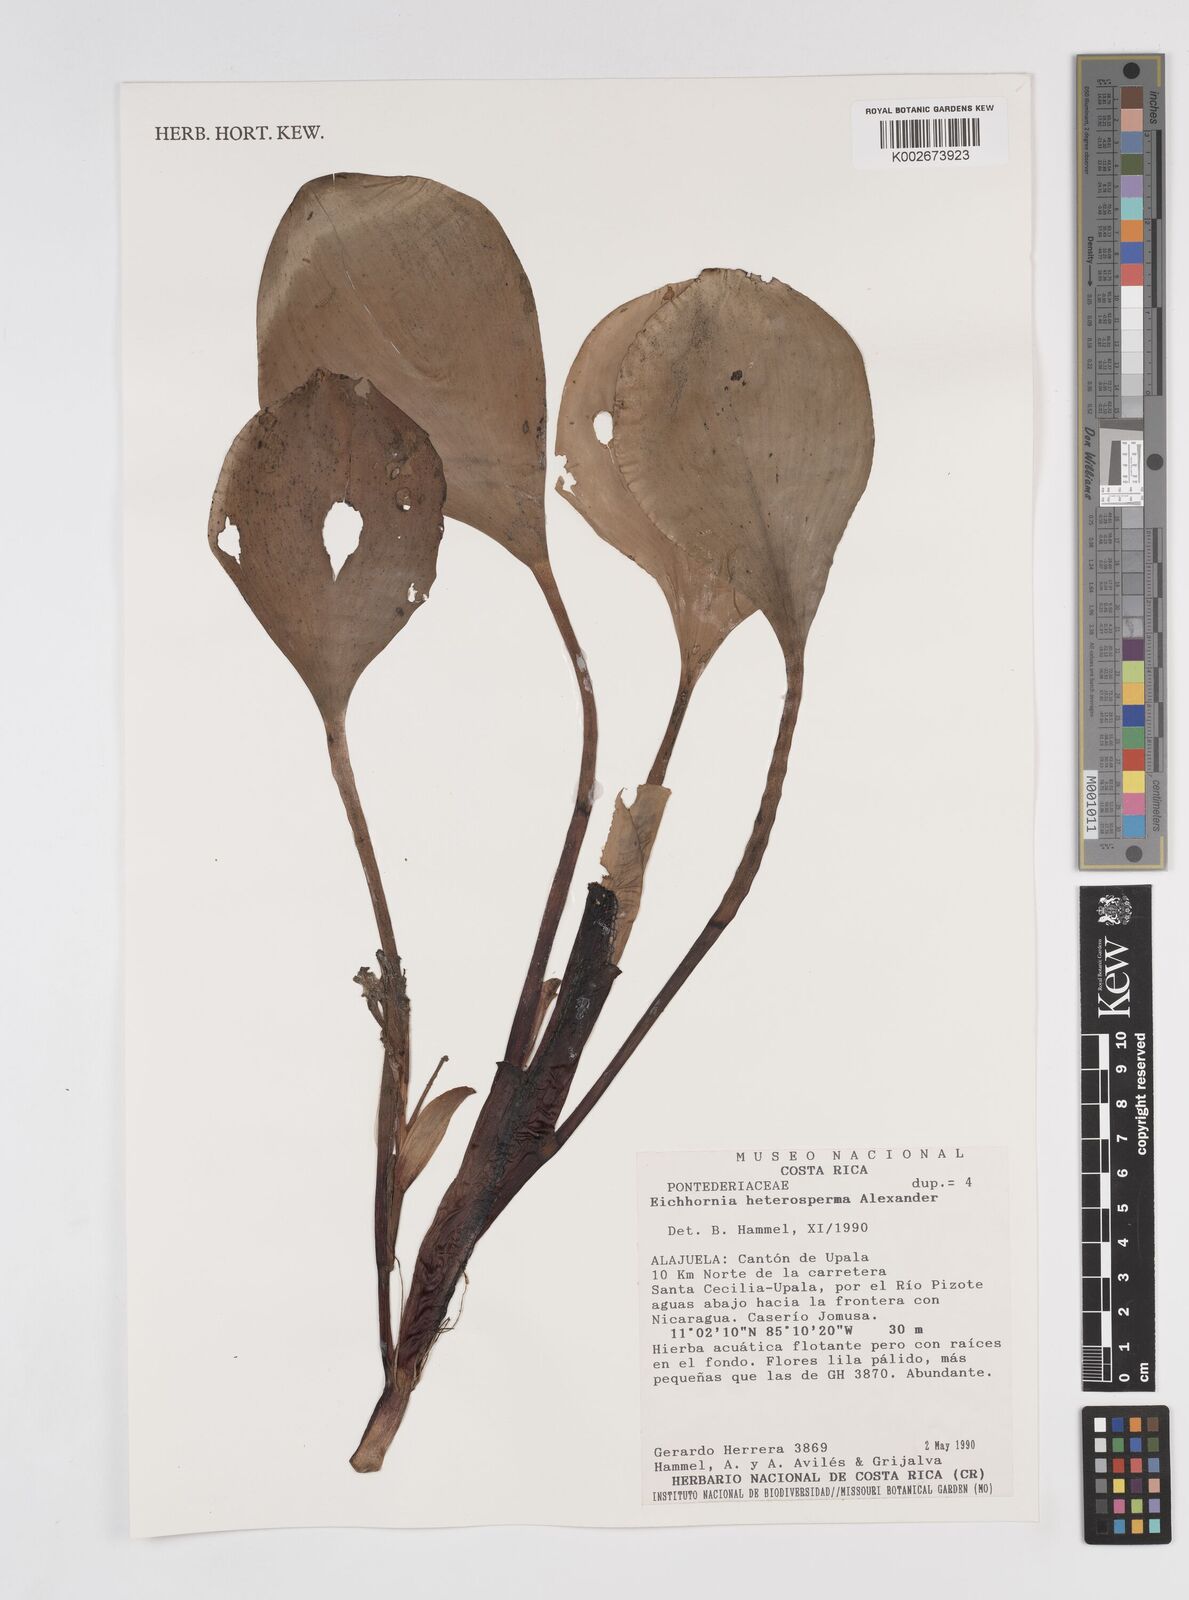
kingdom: Plantae
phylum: Tracheophyta
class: Liliopsida
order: Commelinales
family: Pontederiaceae
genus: Pontederia
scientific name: Pontederia heterosperma
